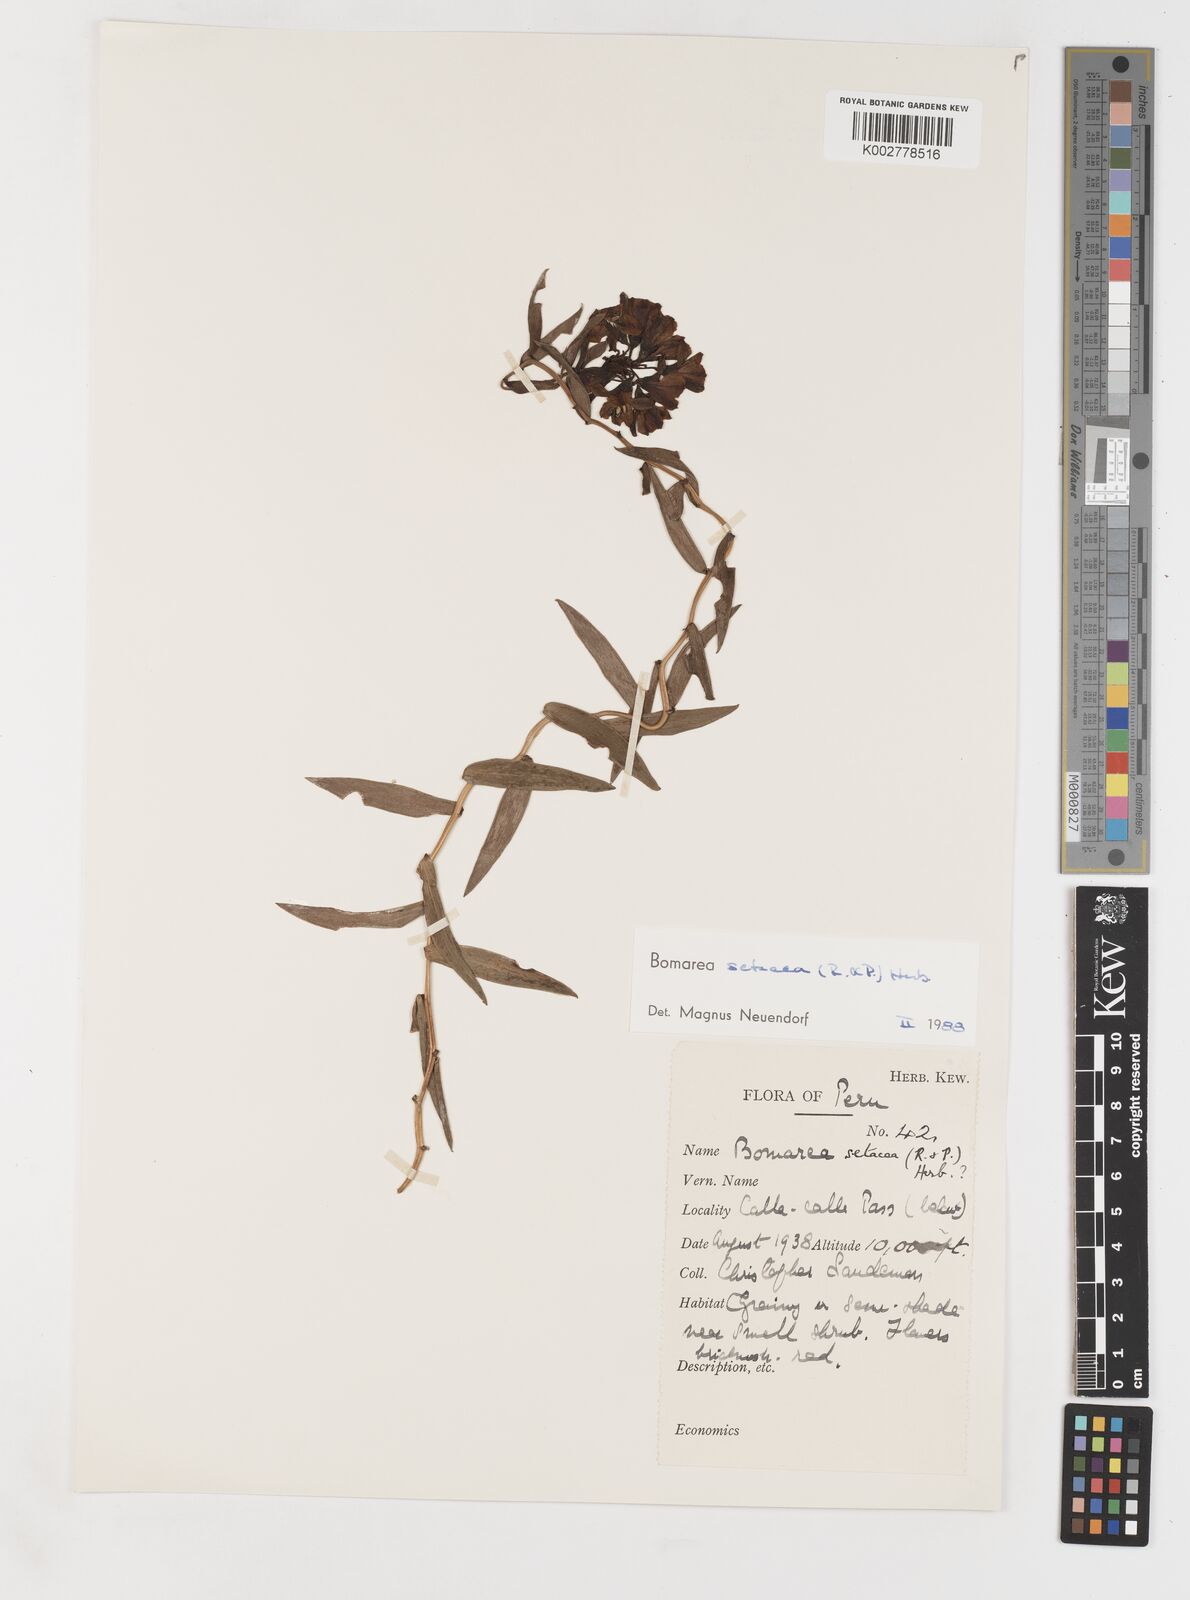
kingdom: Plantae
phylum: Tracheophyta
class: Liliopsida
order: Liliales
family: Alstroemeriaceae
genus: Bomarea
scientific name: Bomarea setacea
